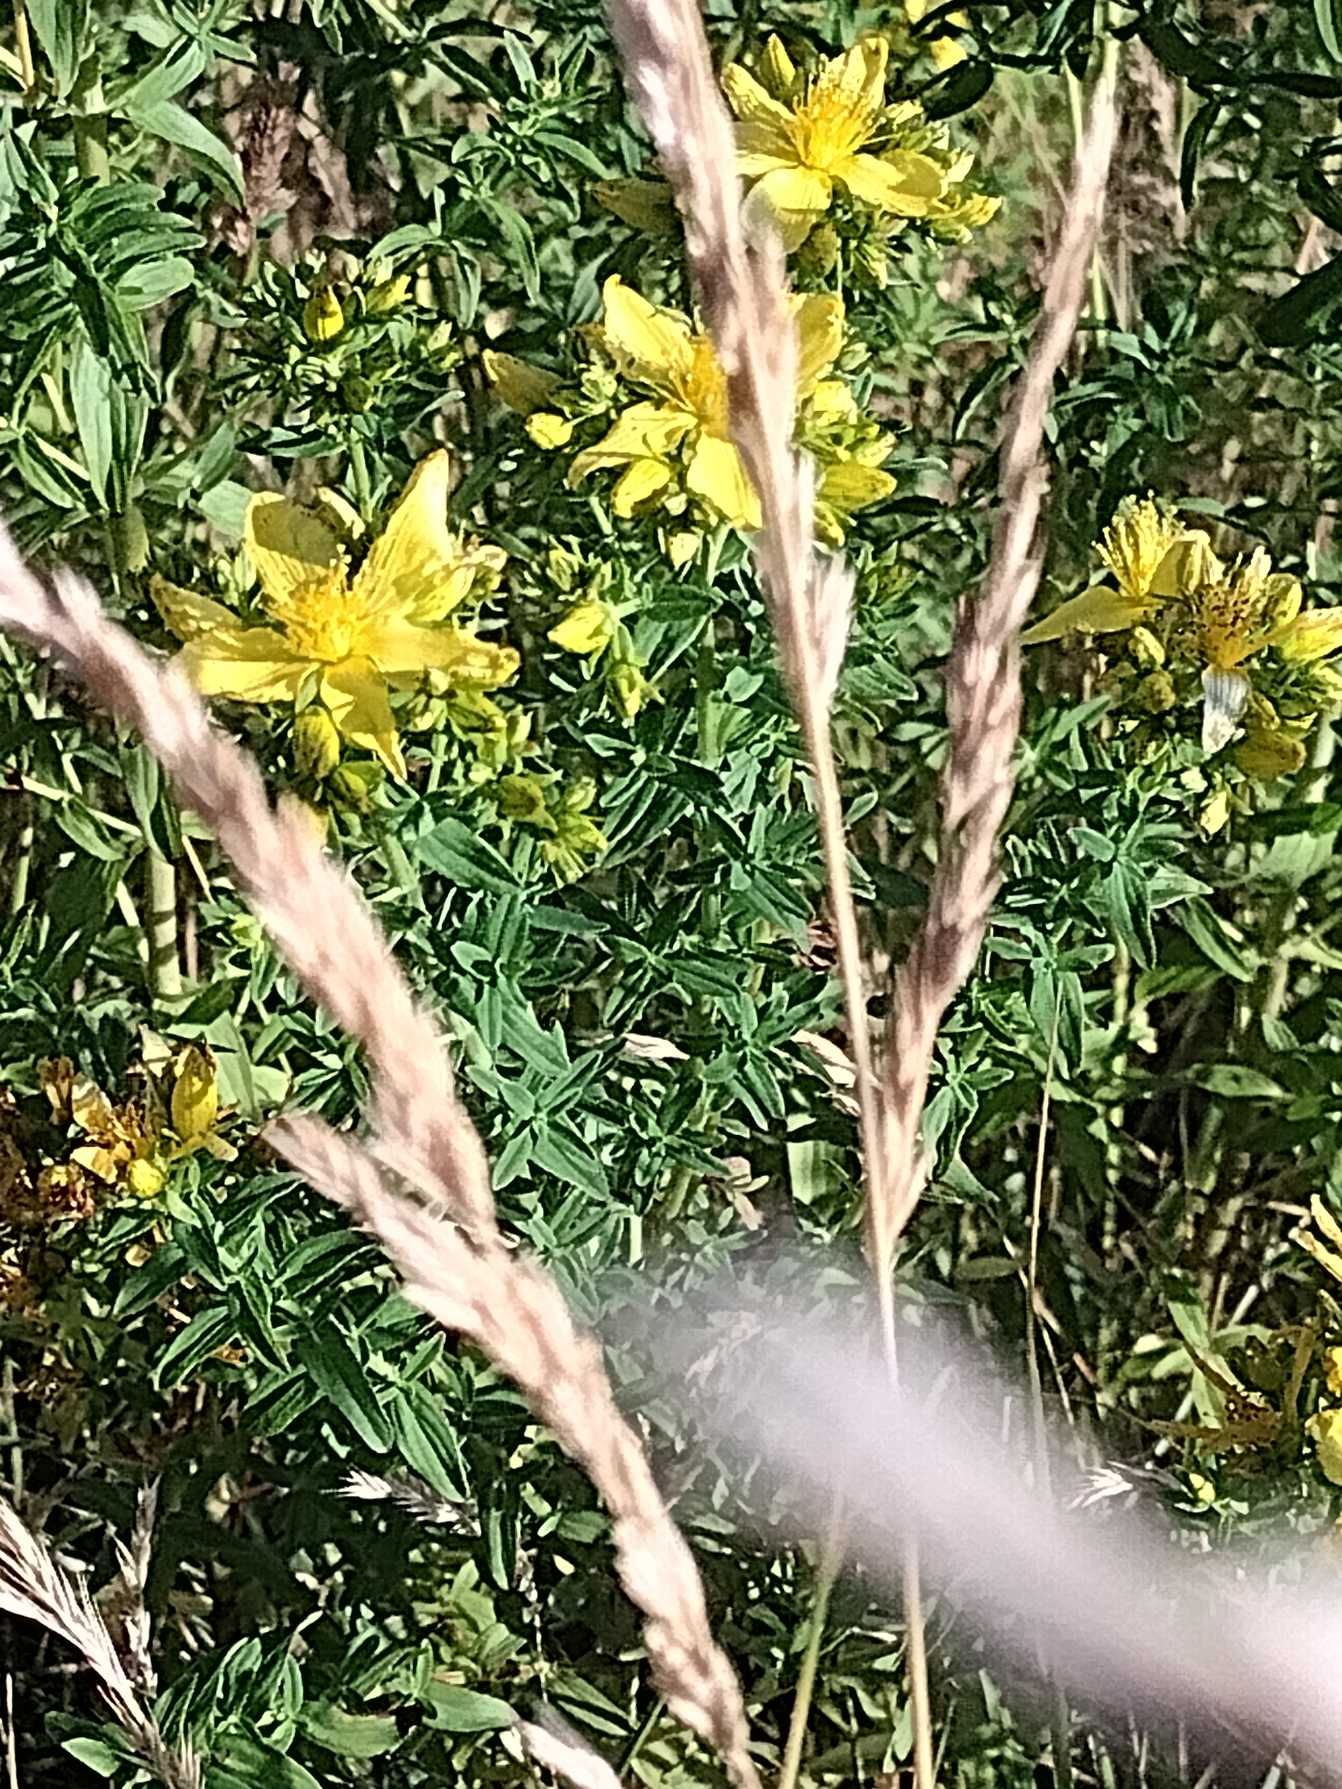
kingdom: Plantae
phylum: Tracheophyta
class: Magnoliopsida
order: Malpighiales
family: Hypericaceae
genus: Hypericum
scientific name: Hypericum perforatum
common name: Prikbladet perikon
